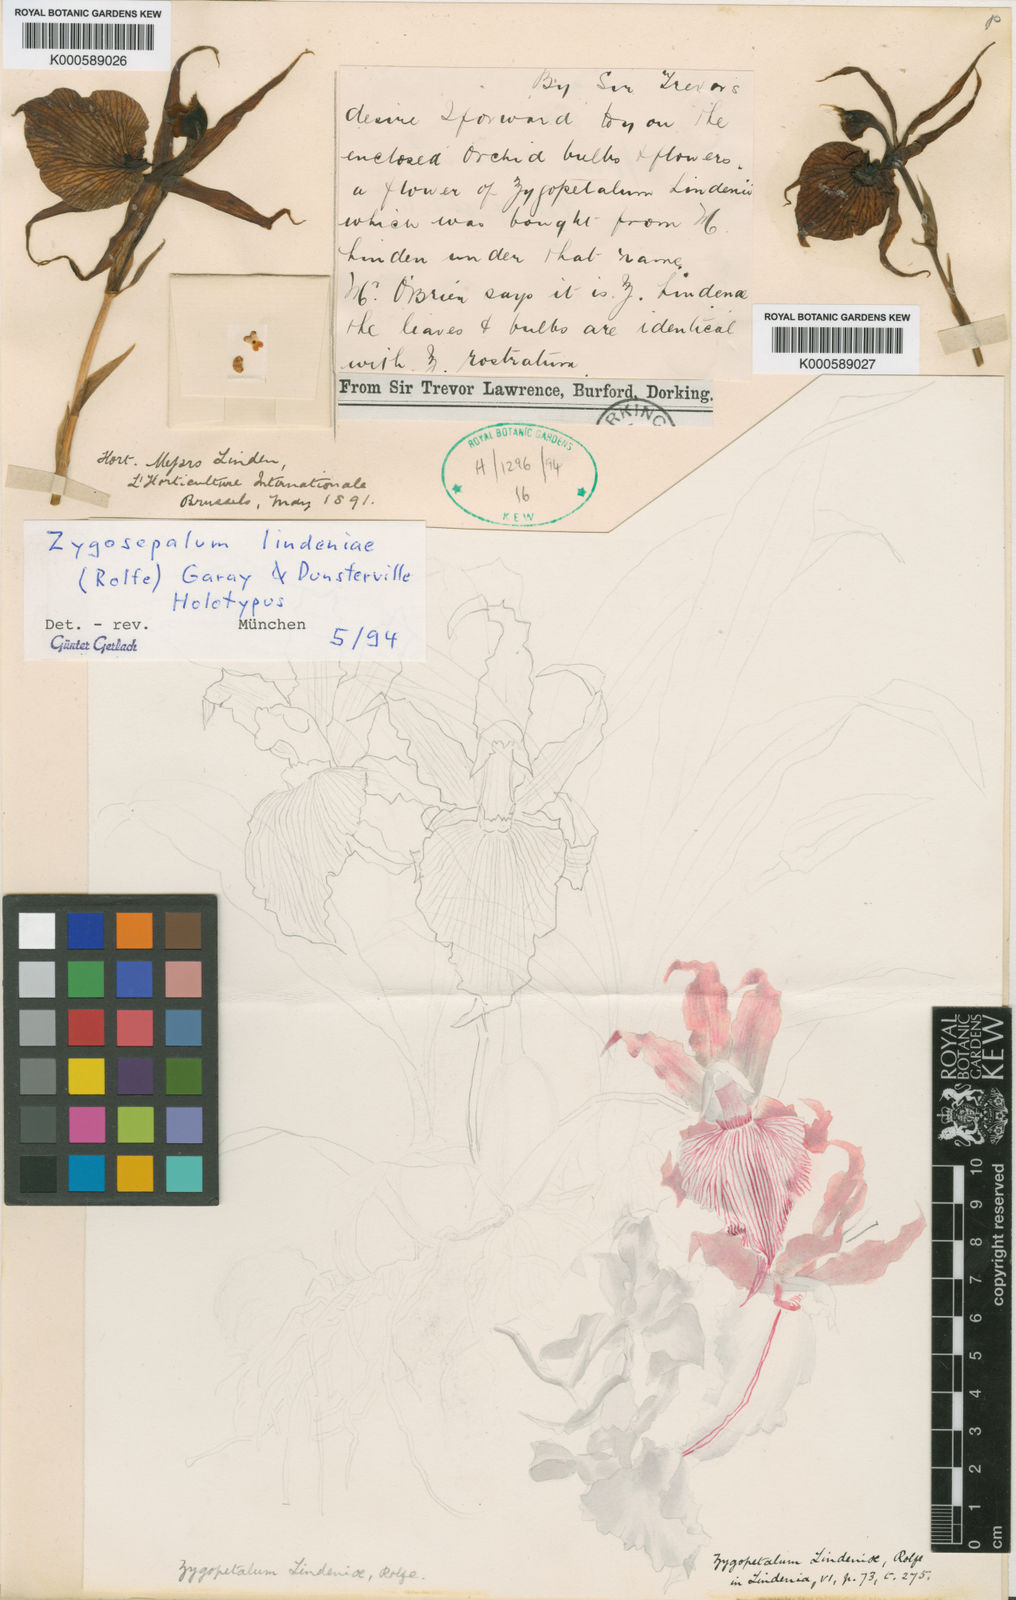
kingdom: Plantae
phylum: Tracheophyta
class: Liliopsida
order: Asparagales
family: Orchidaceae
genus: Zygosepalum
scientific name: Zygosepalum lindeniae
